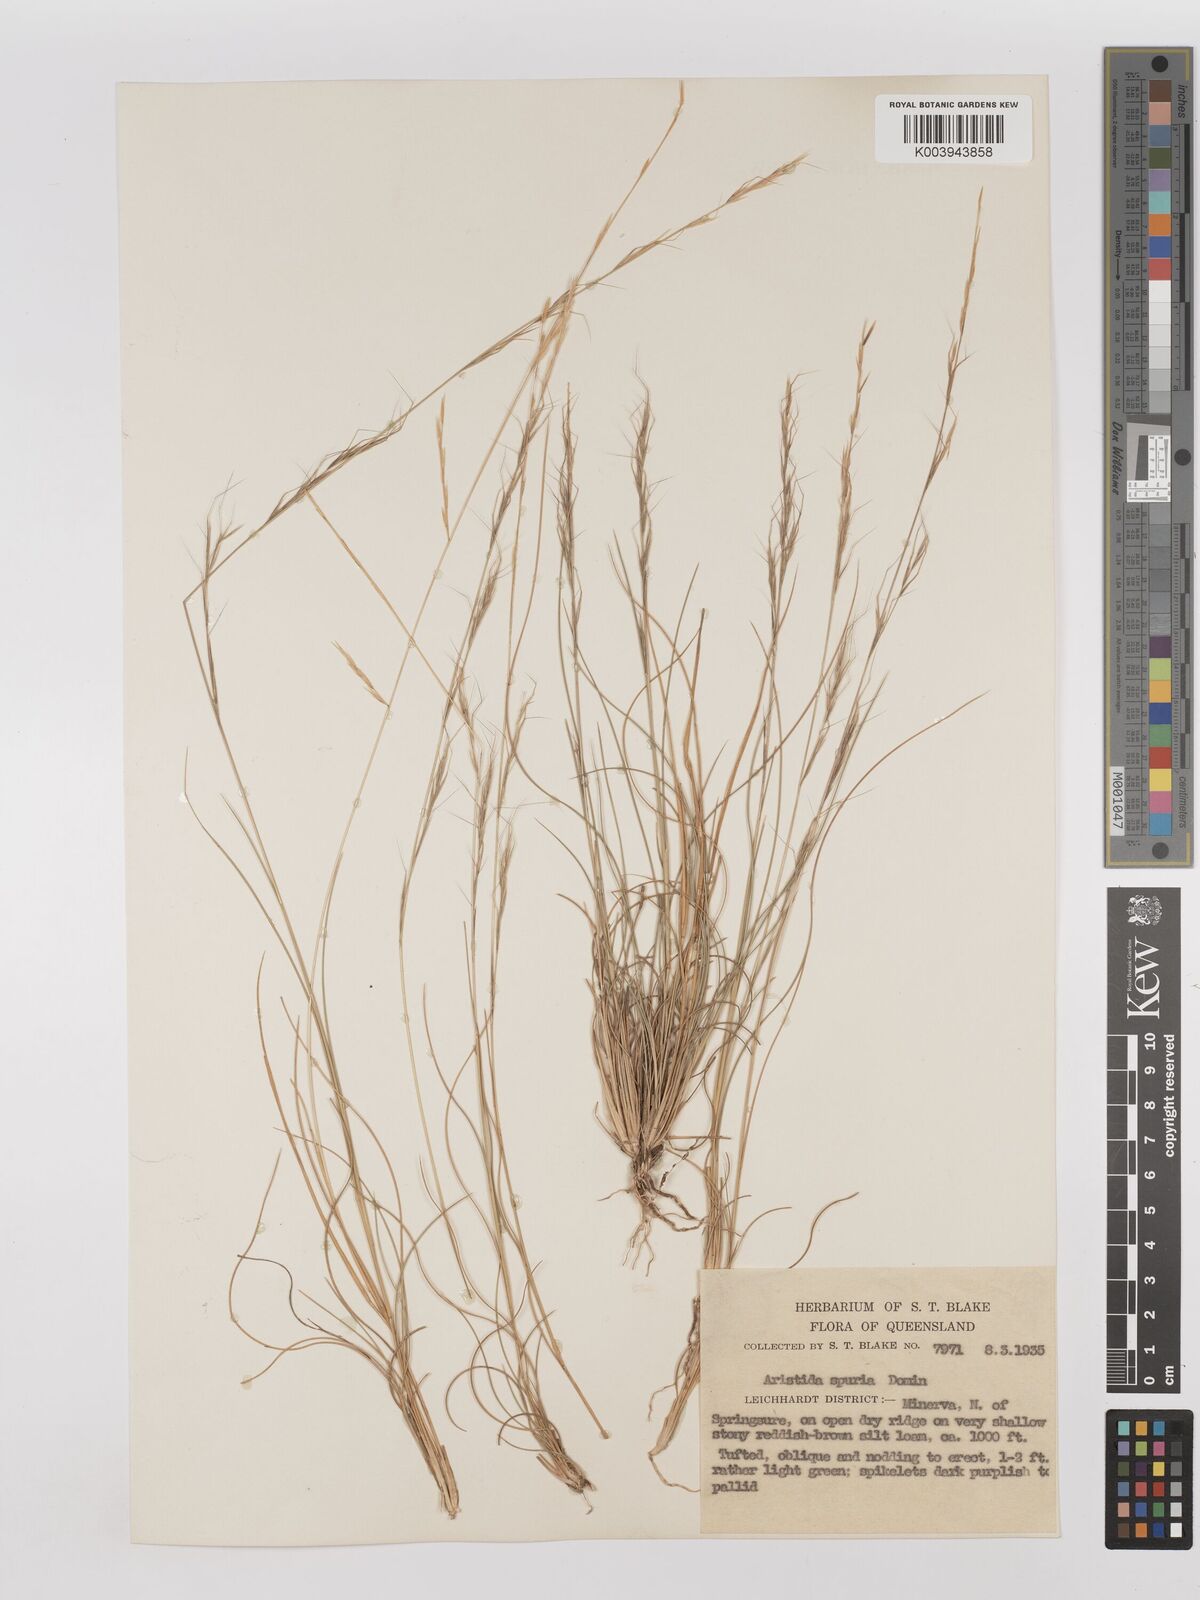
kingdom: Plantae
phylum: Tracheophyta
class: Liliopsida
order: Poales
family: Poaceae
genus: Aristida
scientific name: Aristida spuria
